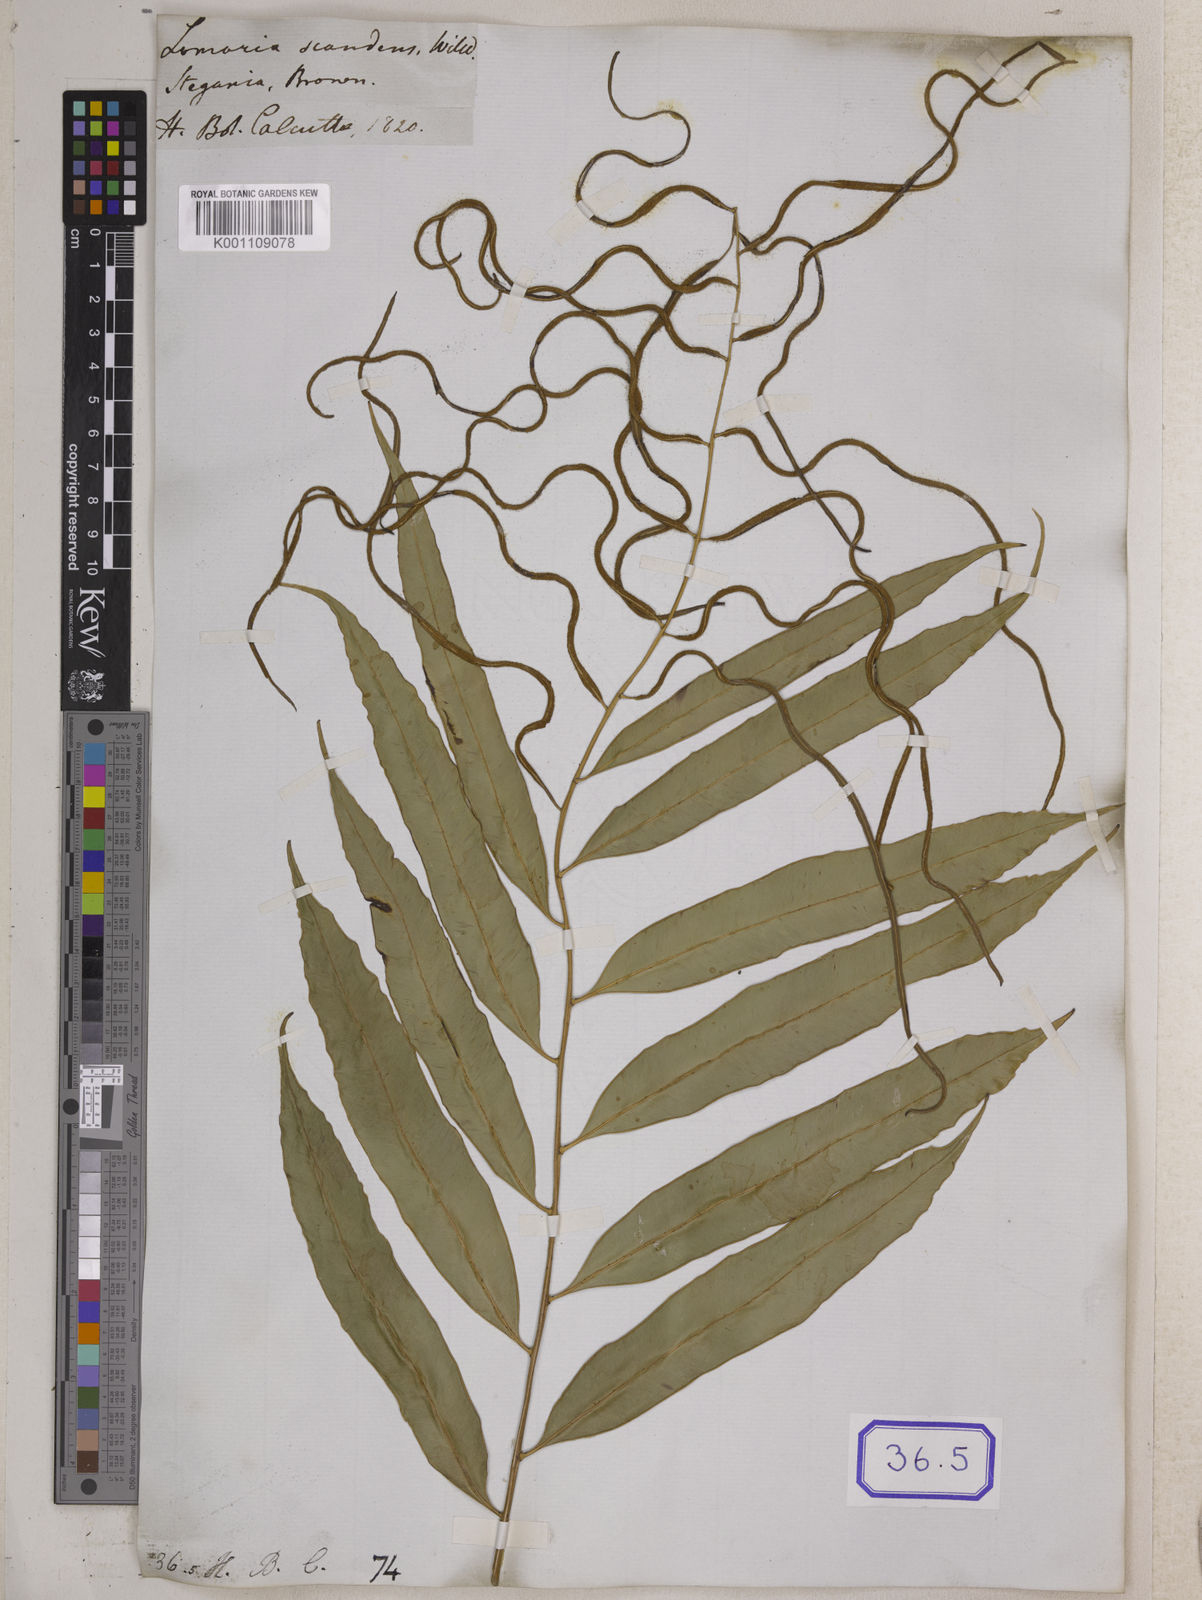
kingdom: Plantae
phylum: Tracheophyta
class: Polypodiopsida
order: Polypodiales
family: Blechnaceae
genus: Stenochlaena
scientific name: Stenochlaena palustris
